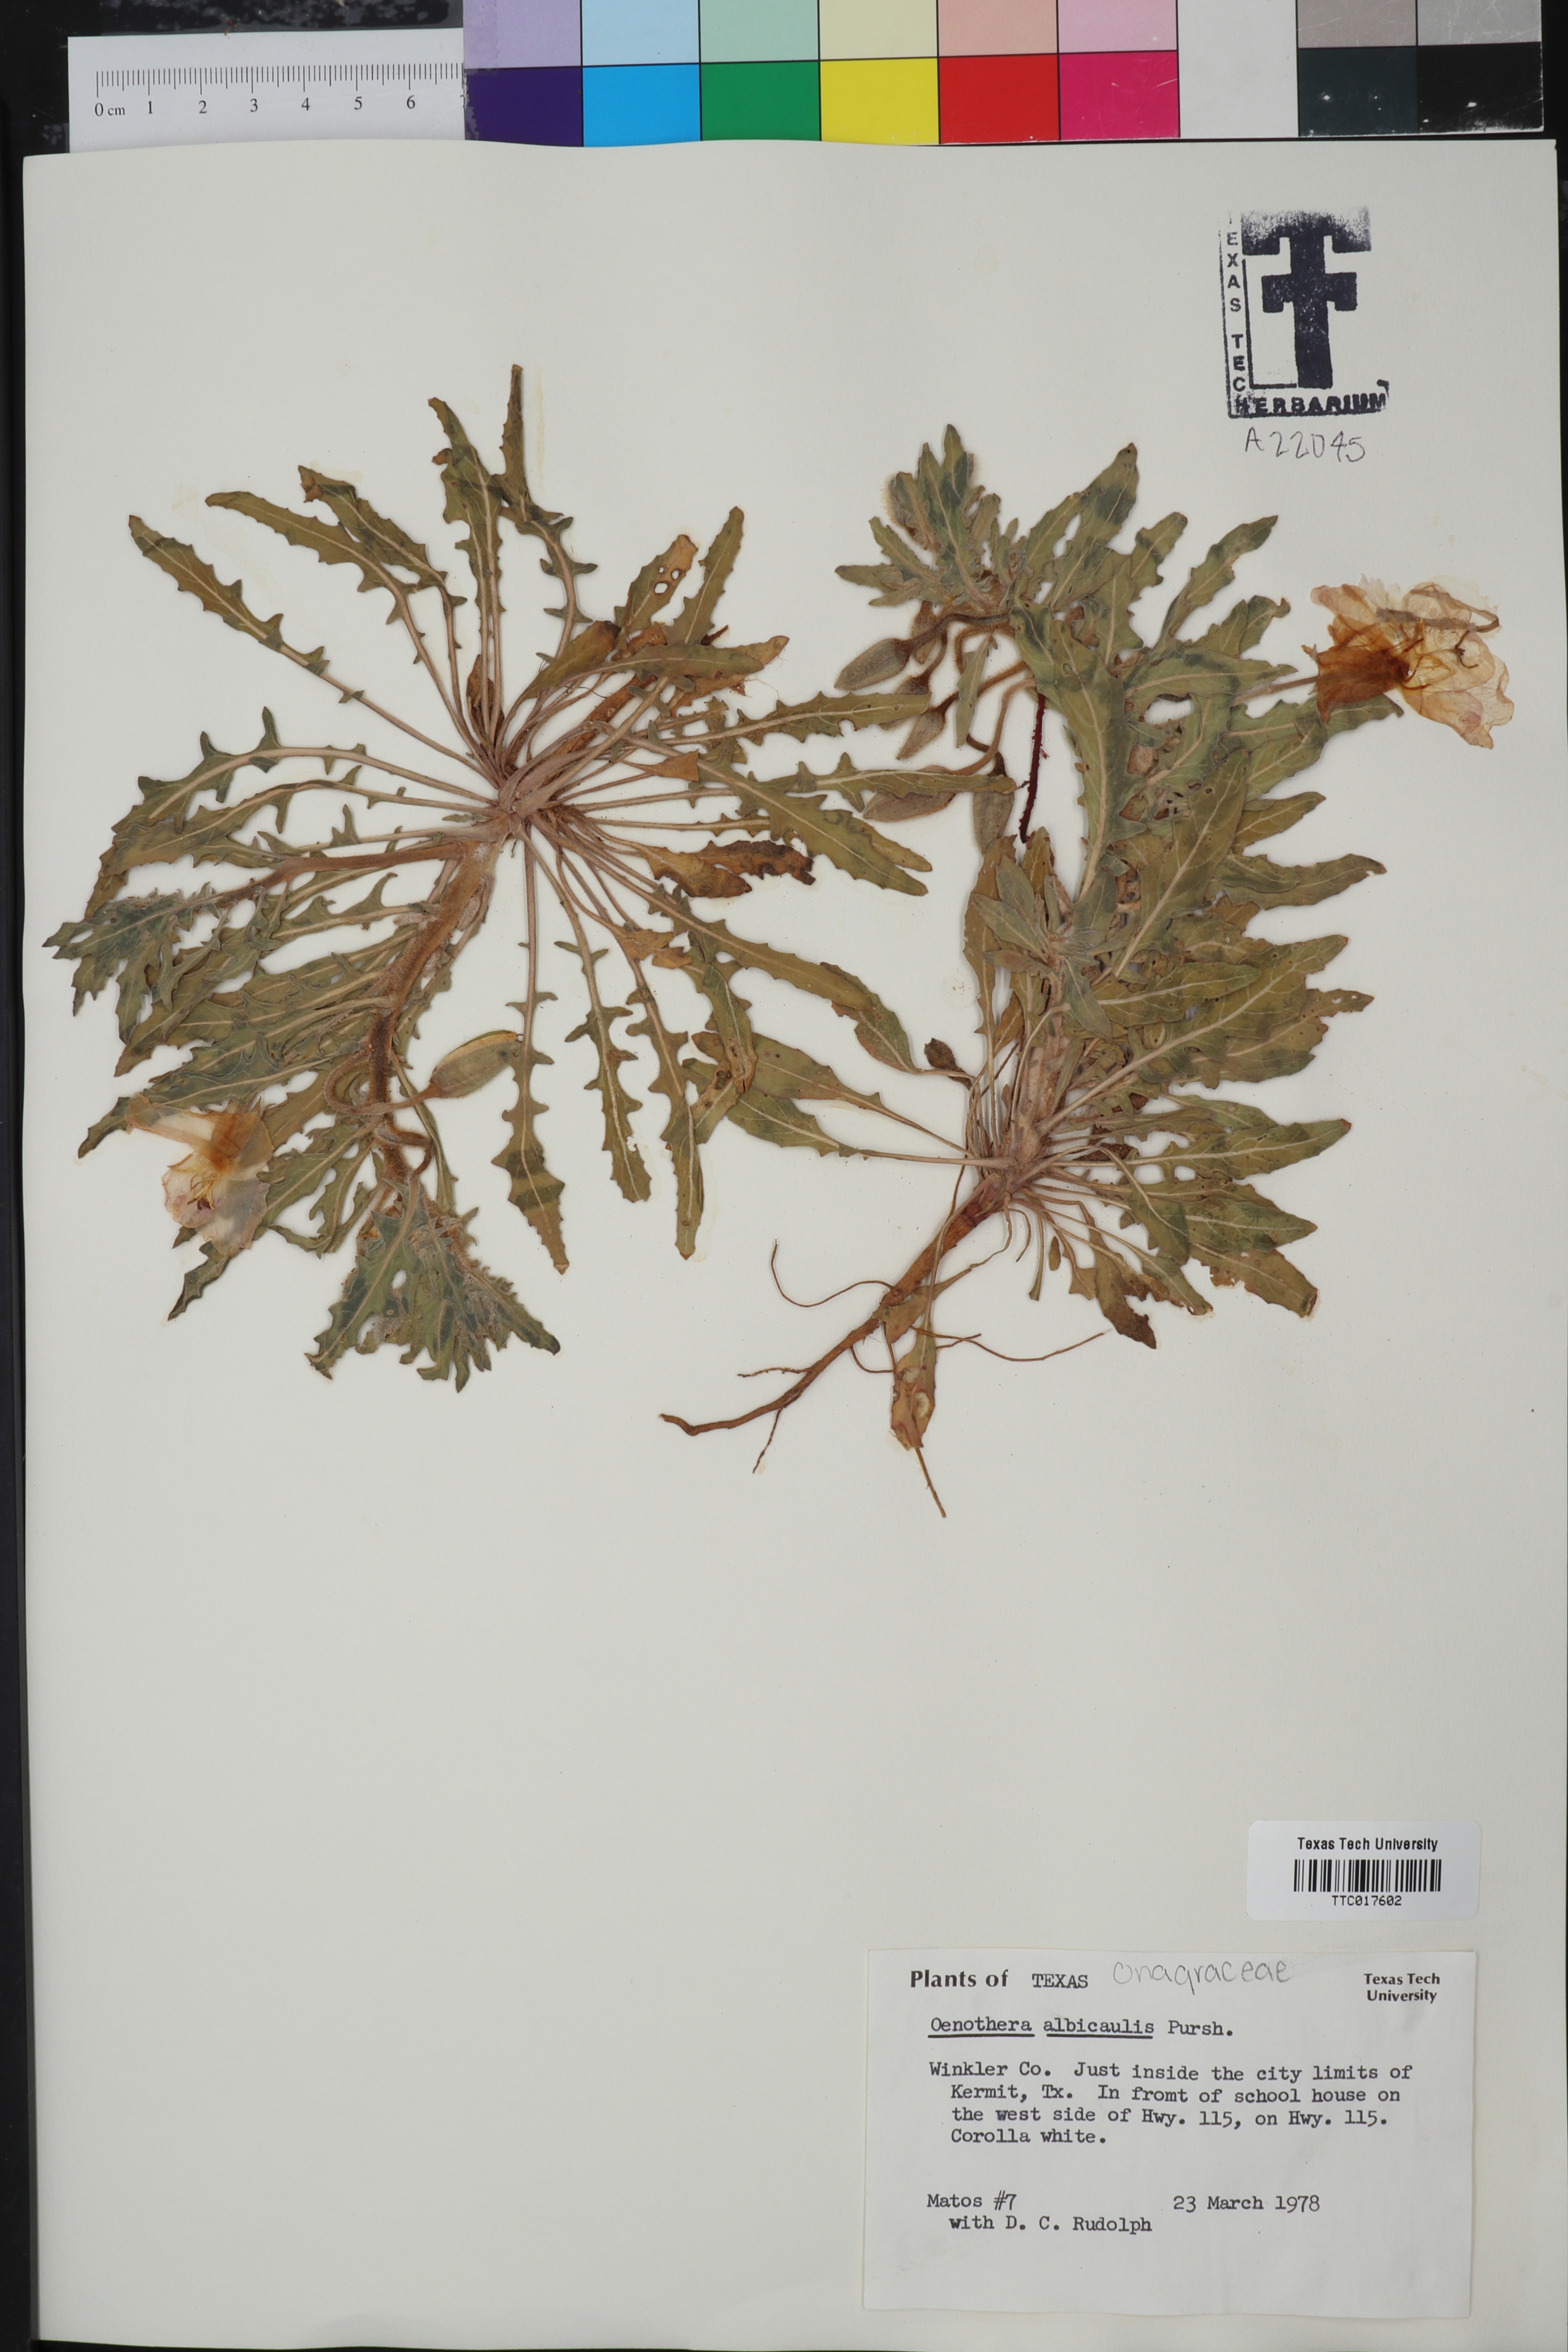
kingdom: Plantae
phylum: Tracheophyta
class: Magnoliopsida
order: Myrtales
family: Onagraceae
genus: Oenothera
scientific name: Oenothera albicaulis
